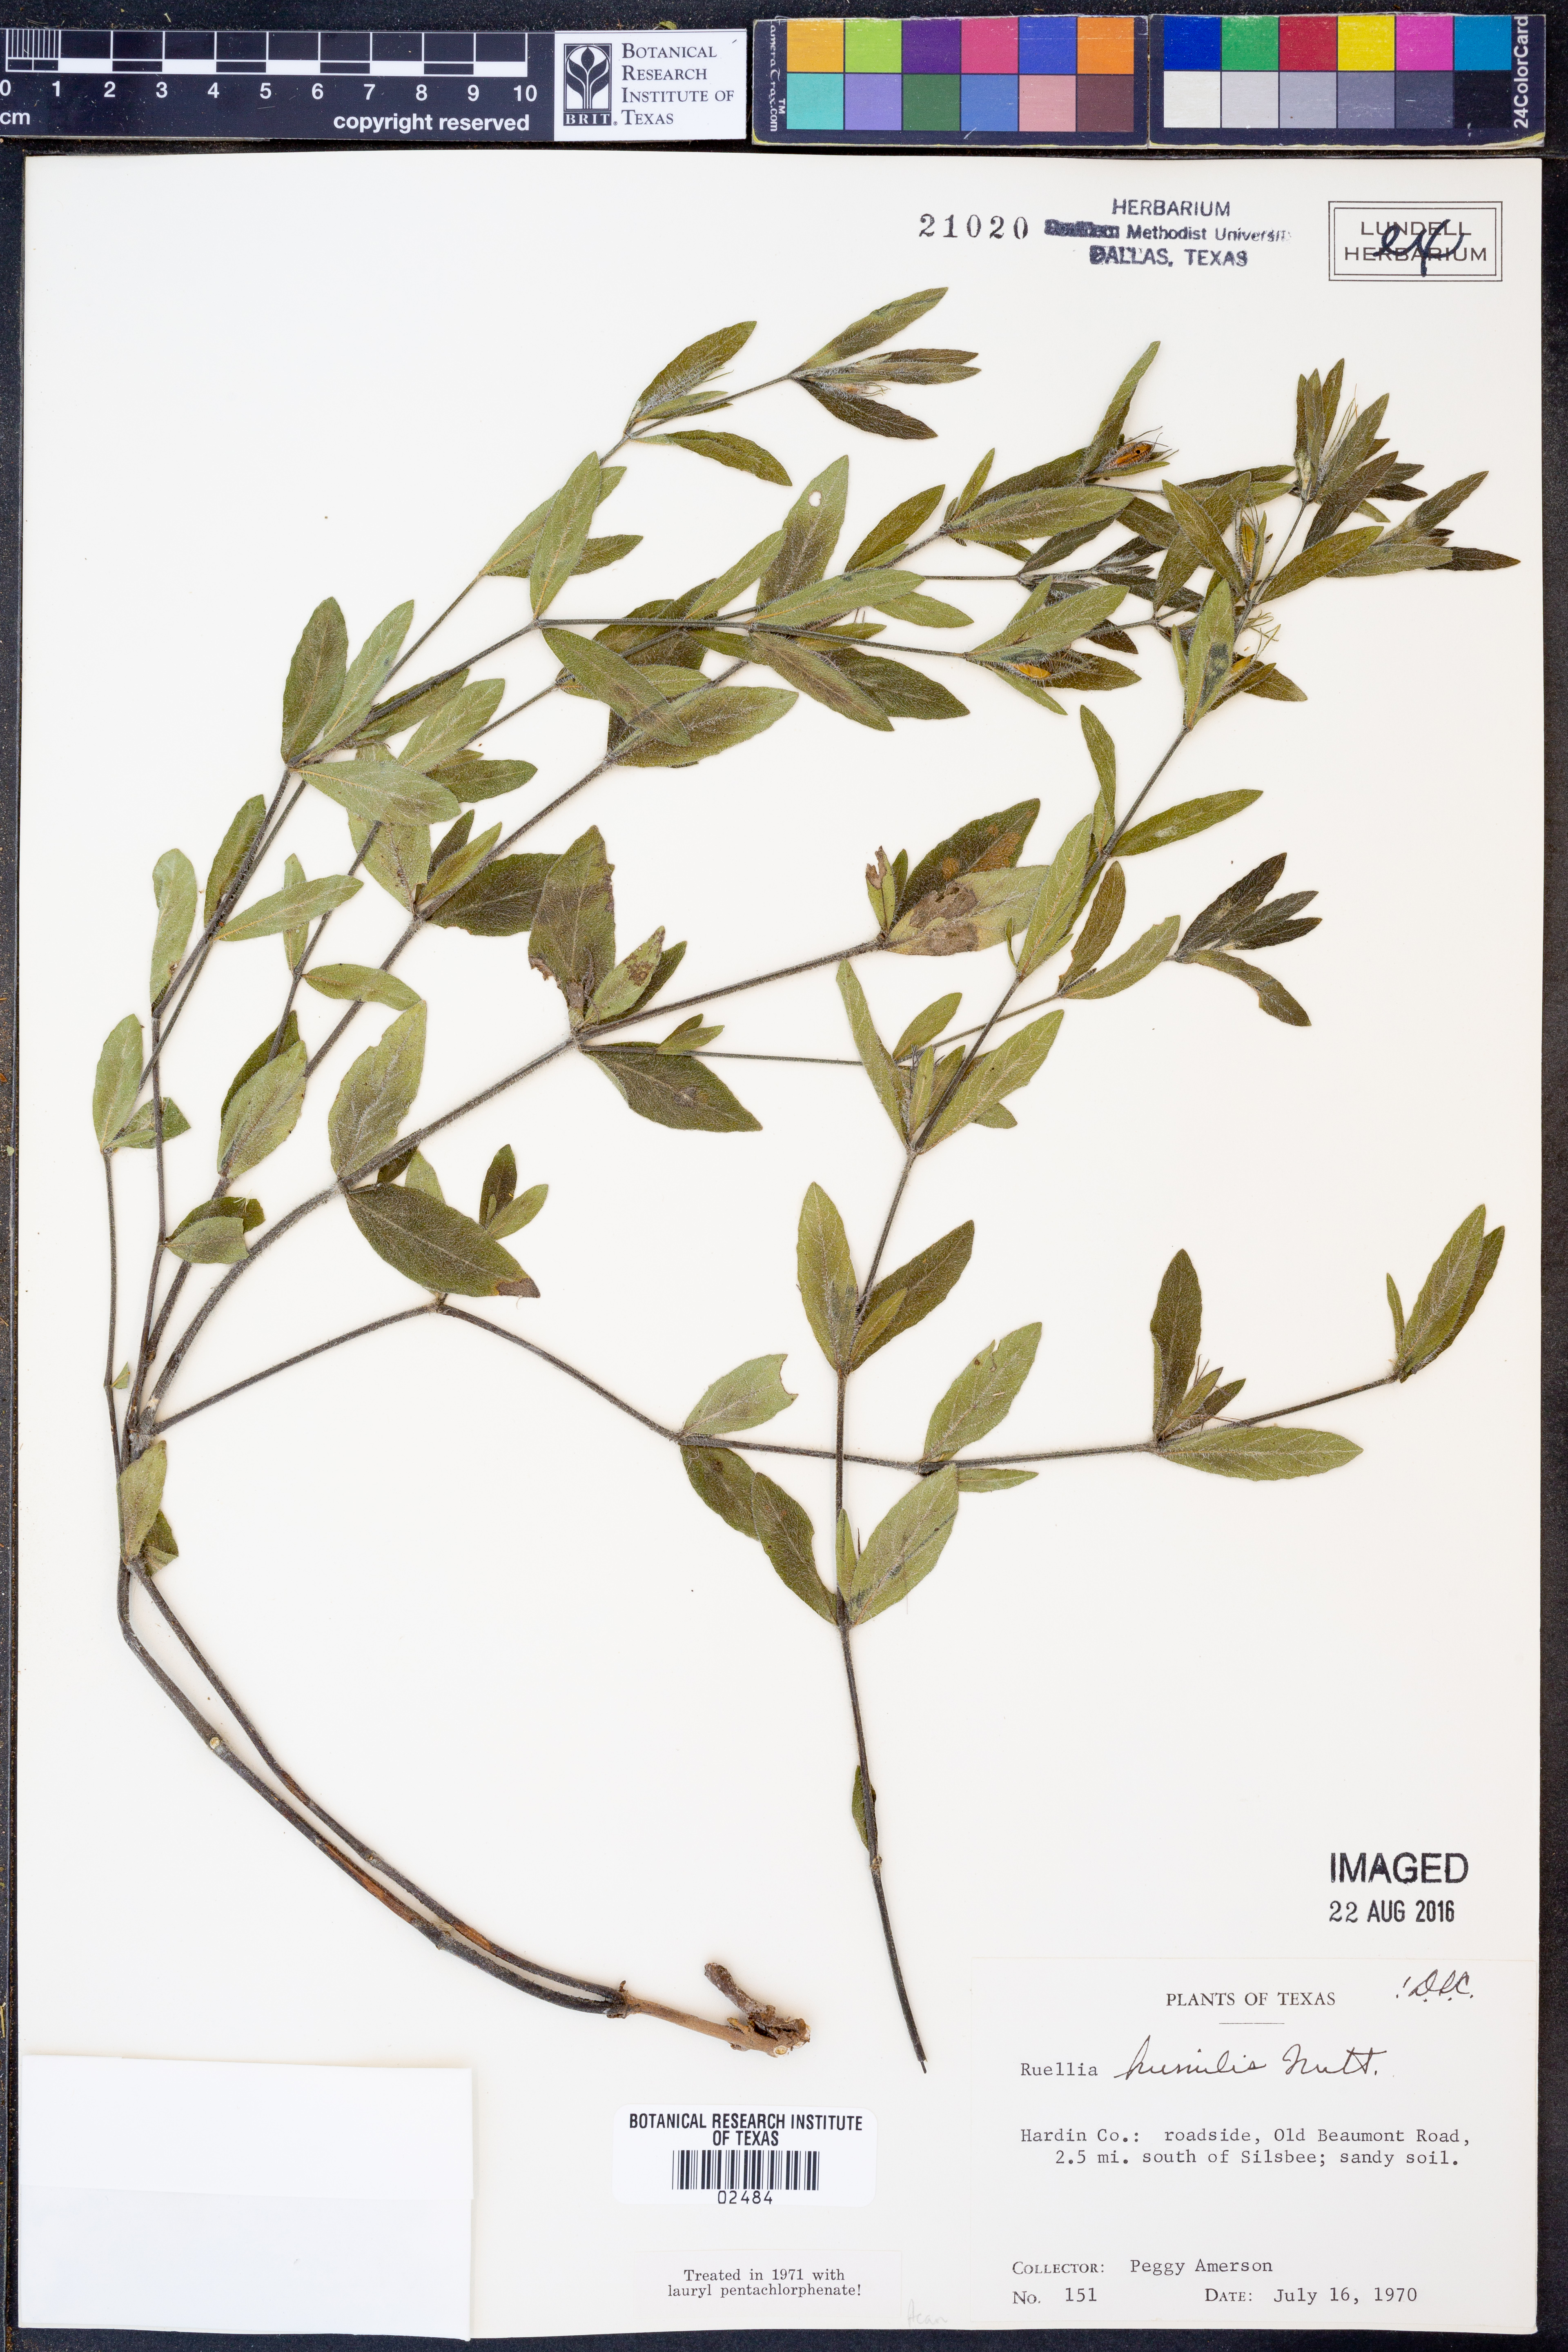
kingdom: Plantae
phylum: Tracheophyta
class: Magnoliopsida
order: Lamiales
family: Acanthaceae
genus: Ruellia
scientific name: Ruellia humilis
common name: Fringe-leaf ruellia
